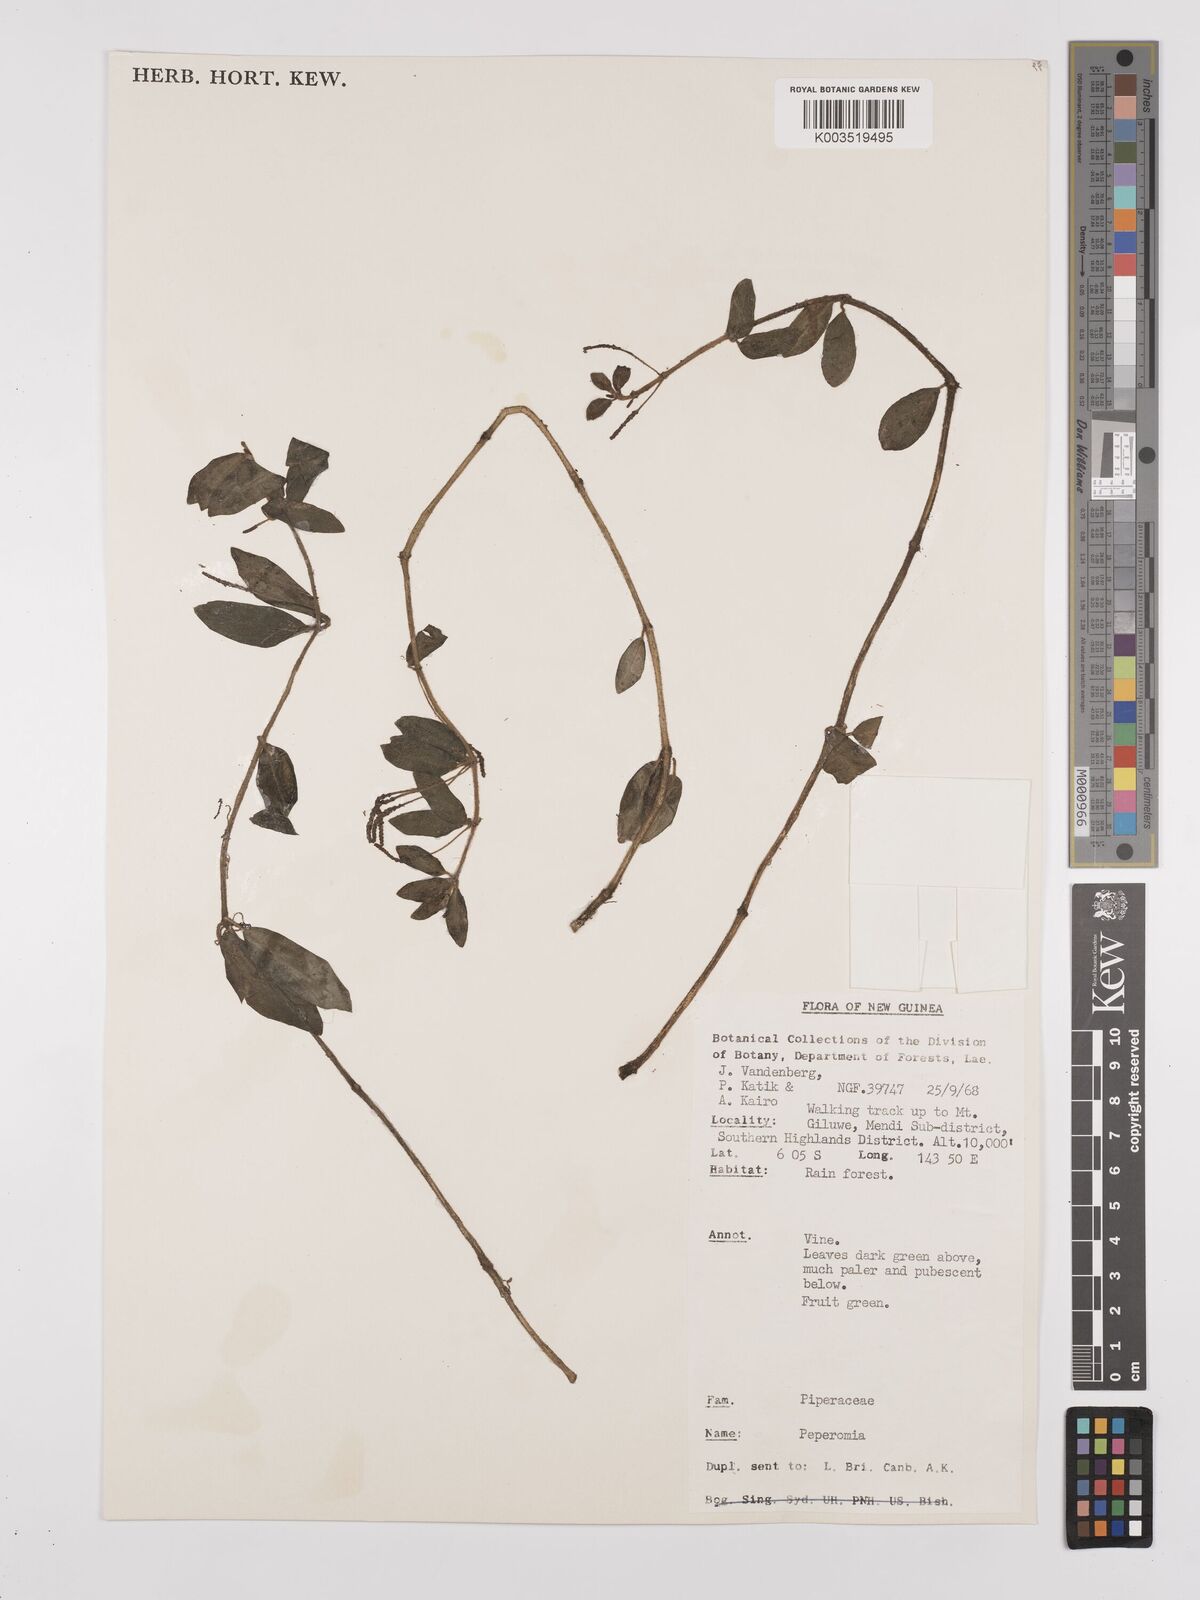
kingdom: Plantae
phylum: Tracheophyta
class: Magnoliopsida
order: Piperales
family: Piperaceae
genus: Peperomia
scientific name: Peperomia
